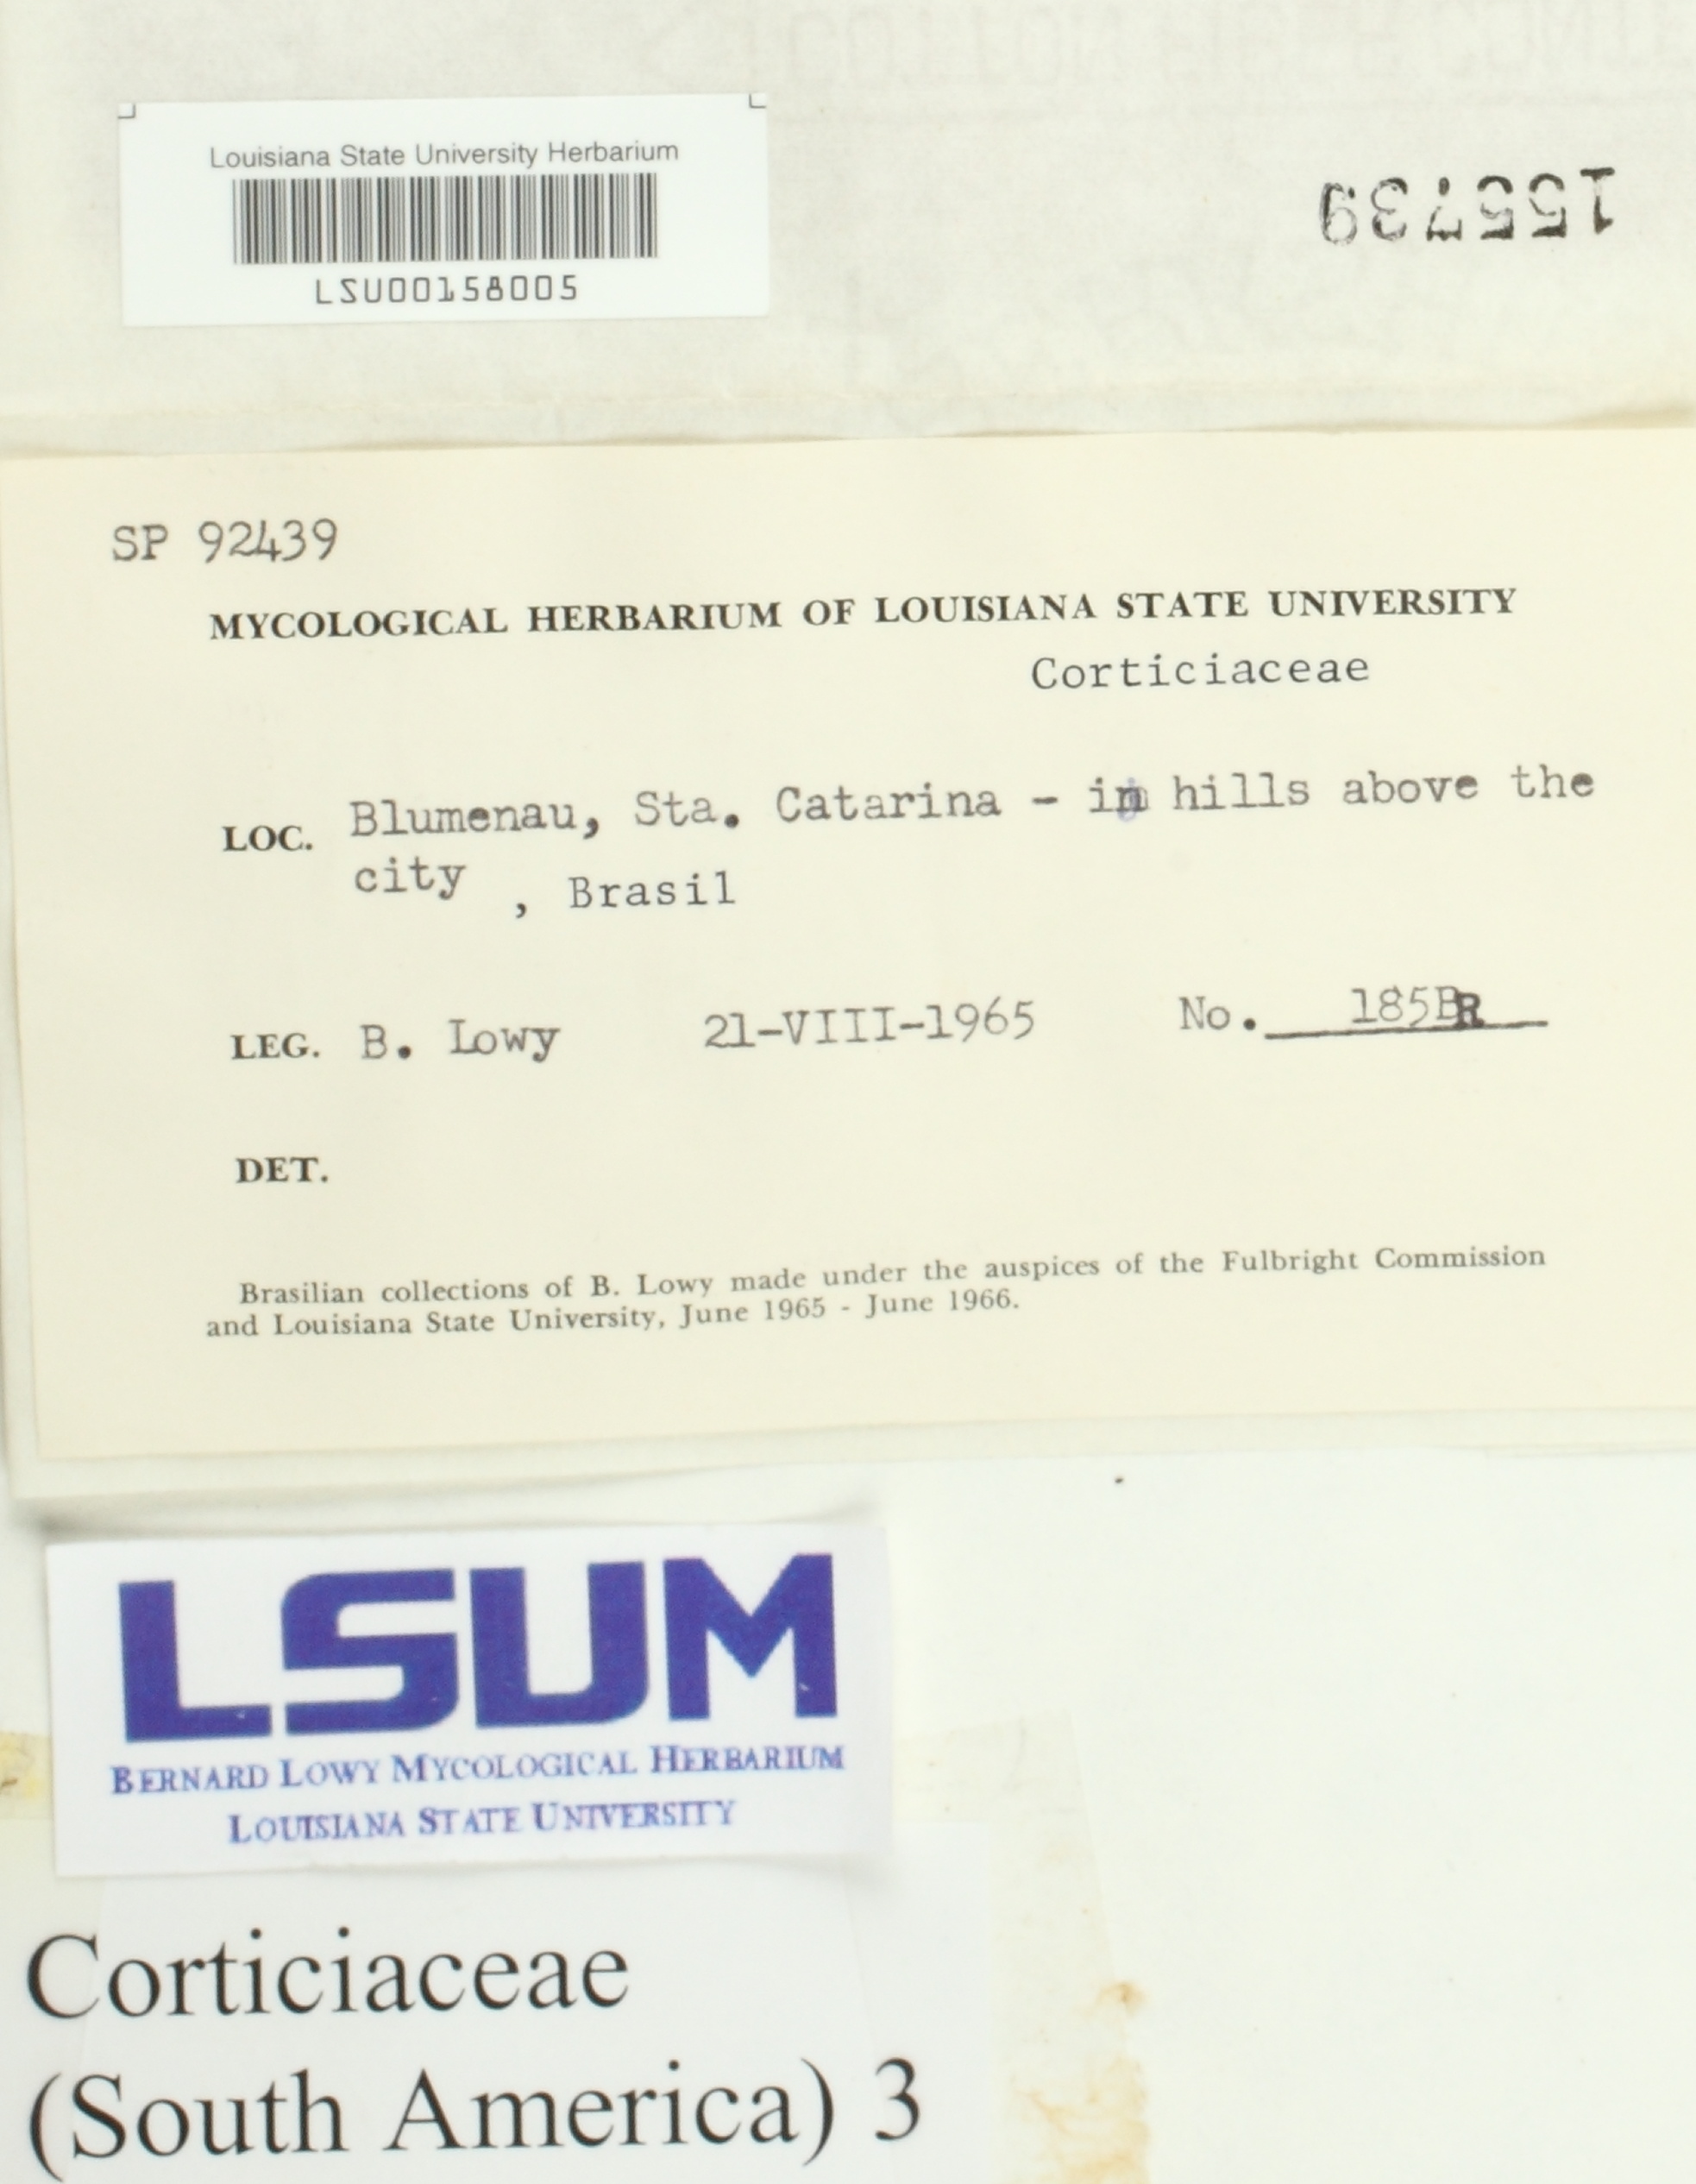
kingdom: Fungi
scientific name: Fungi
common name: Fungi
